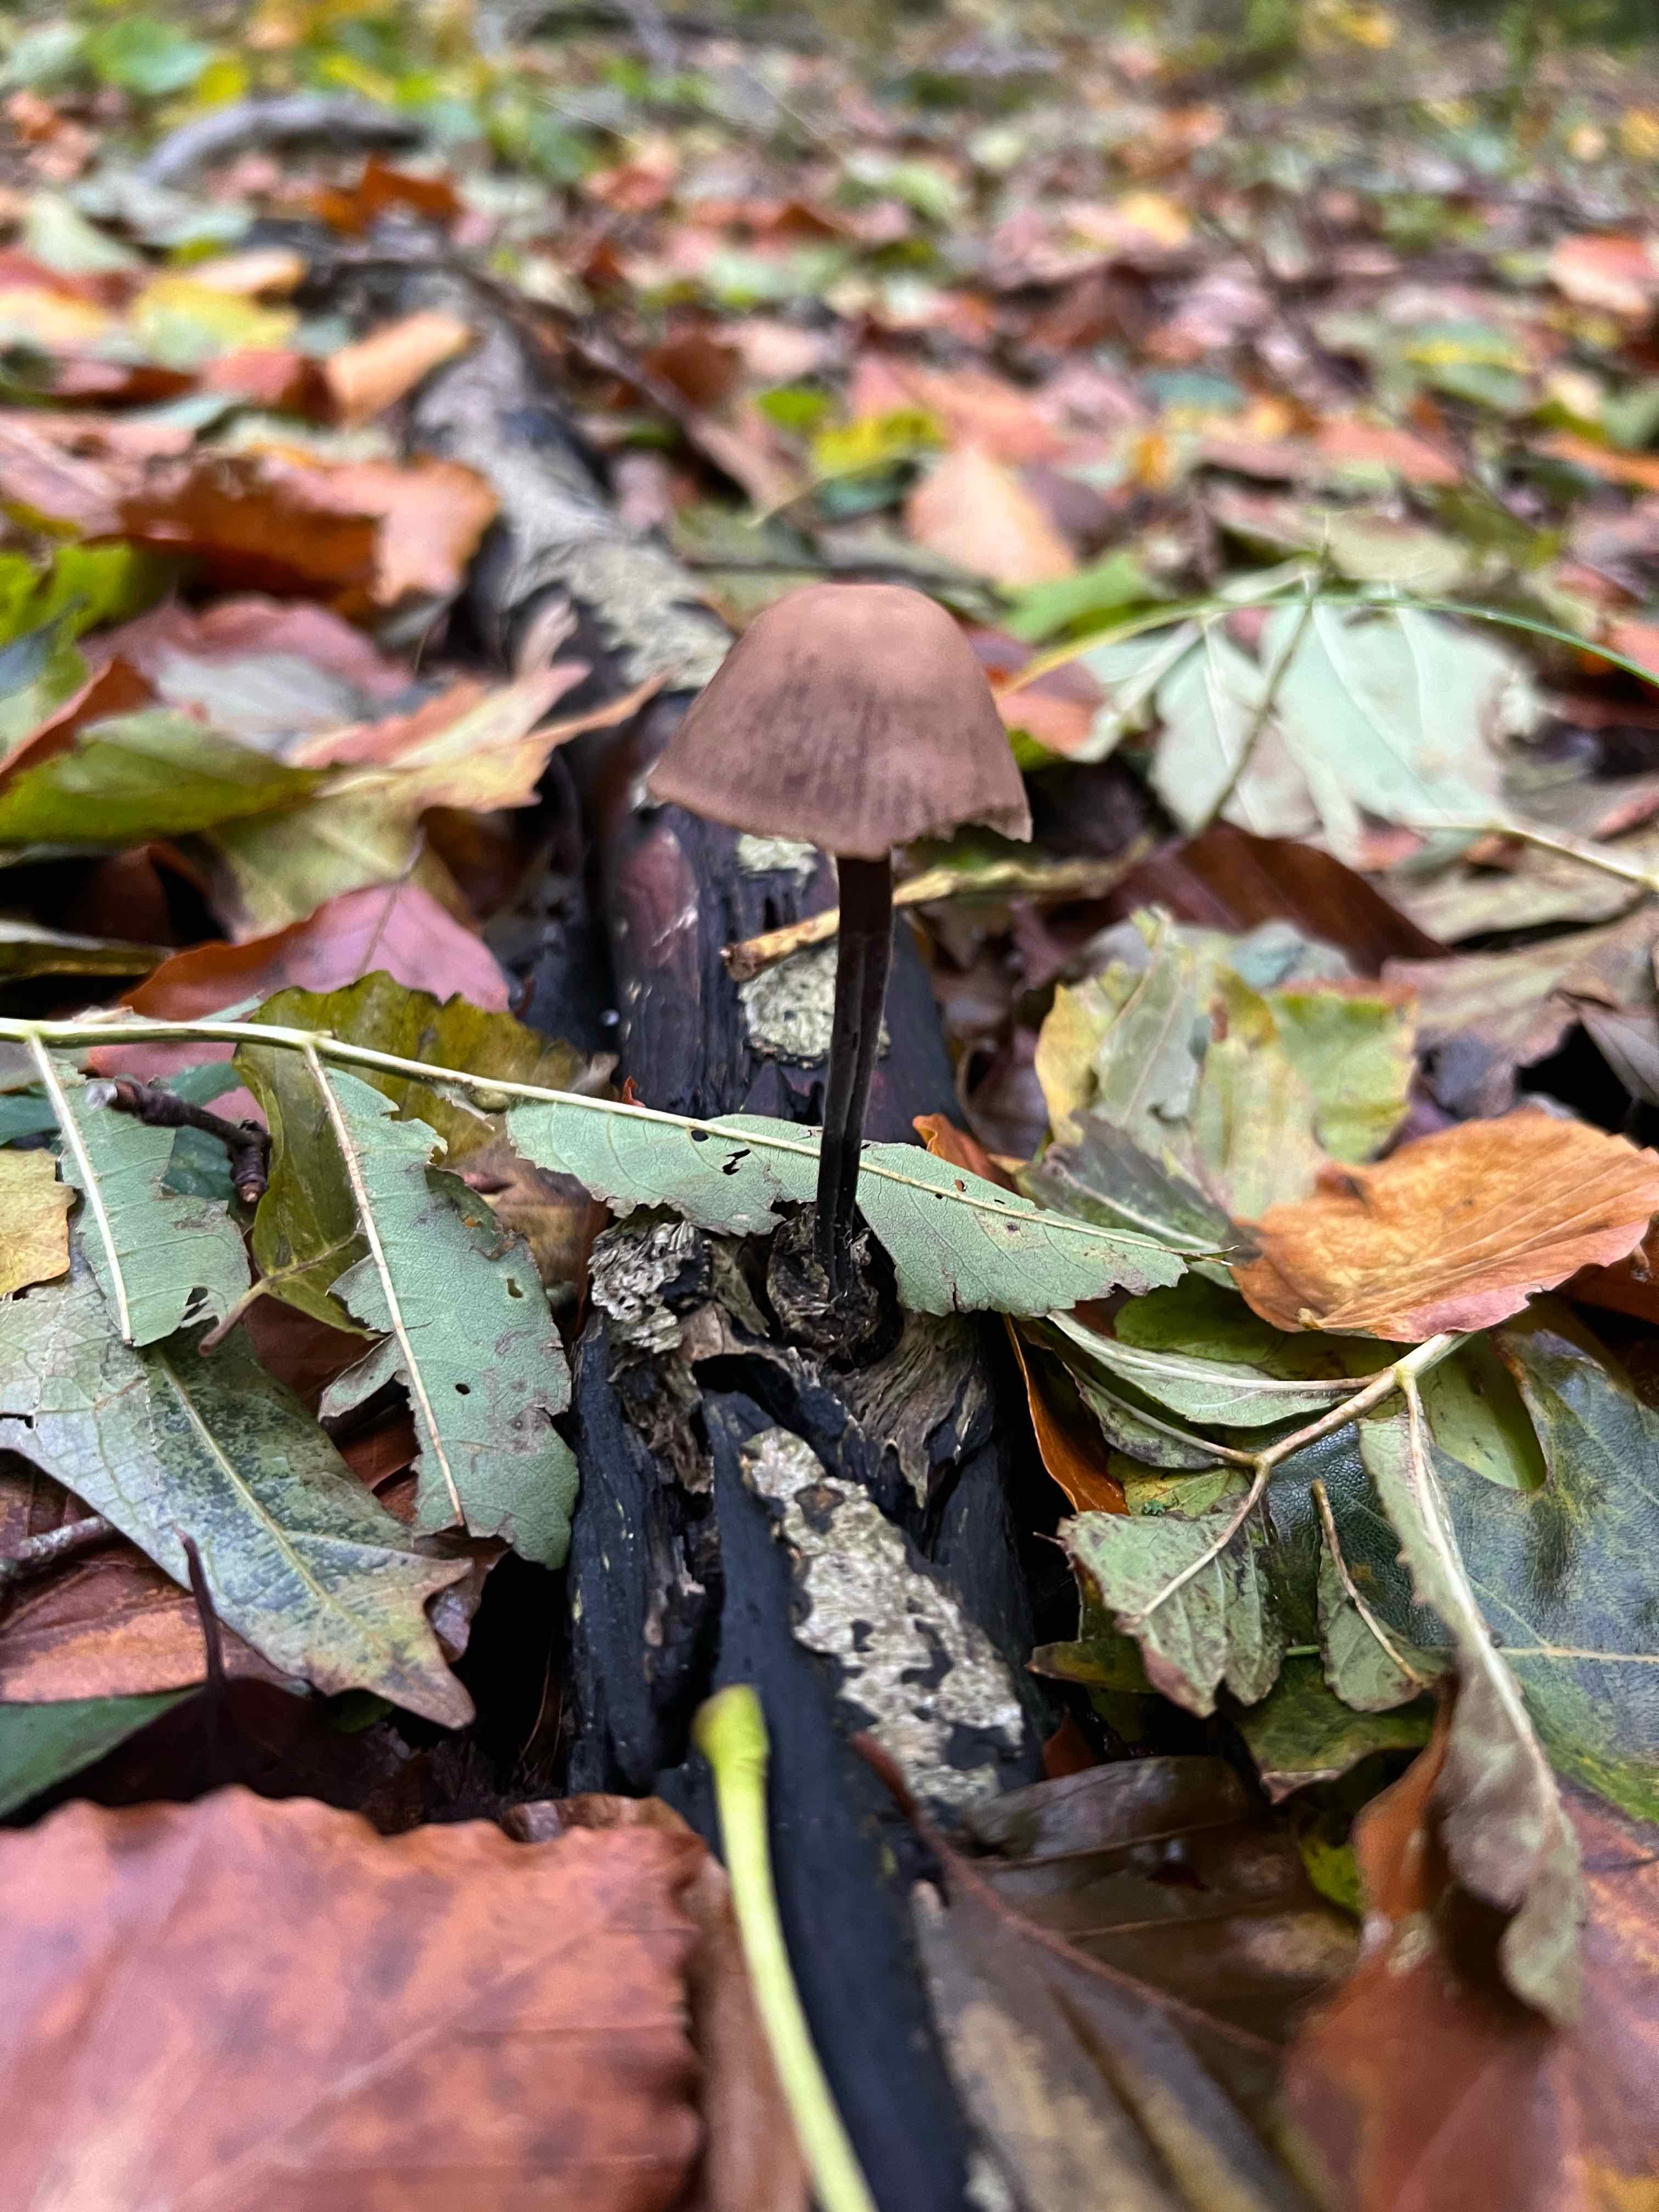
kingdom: Fungi
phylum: Basidiomycota
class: Agaricomycetes
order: Agaricales
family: Omphalotaceae
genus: Mycetinis
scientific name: Mycetinis alliaceus
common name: stor løghat
